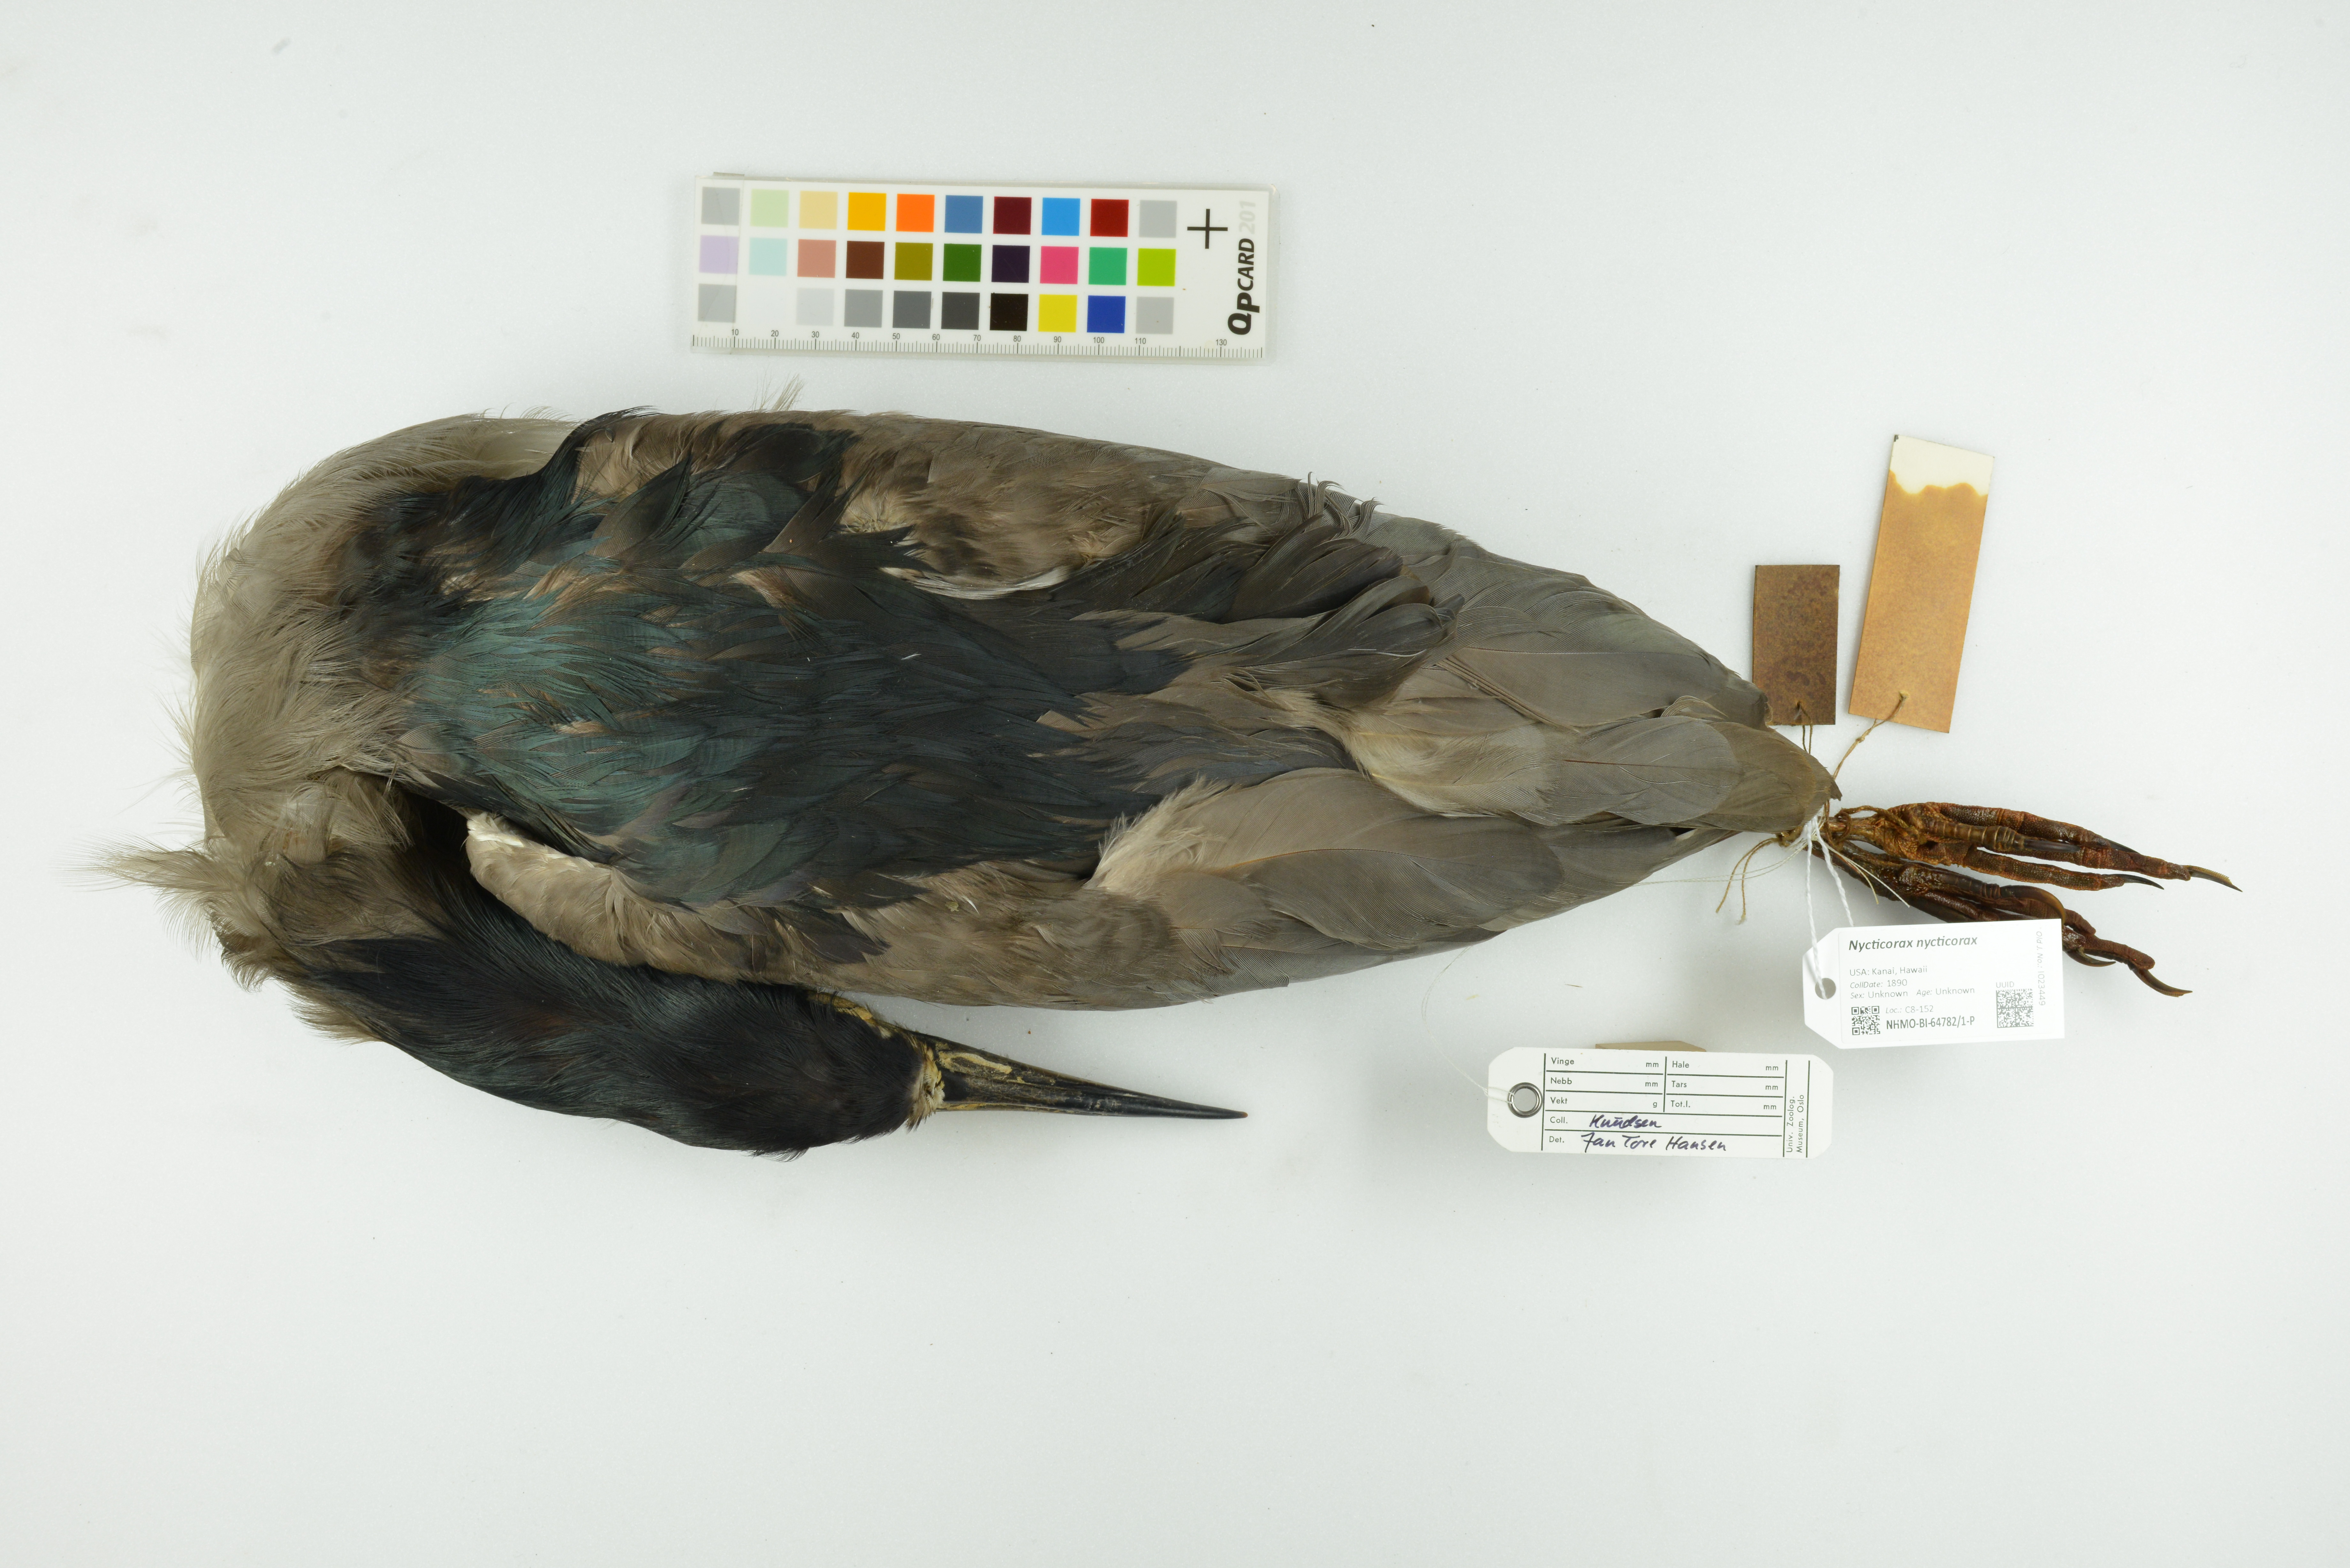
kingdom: Animalia
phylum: Chordata
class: Aves
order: Pelecaniformes
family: Ardeidae
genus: Nycticorax
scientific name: Nycticorax nycticorax
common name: Black-crowned night heron
